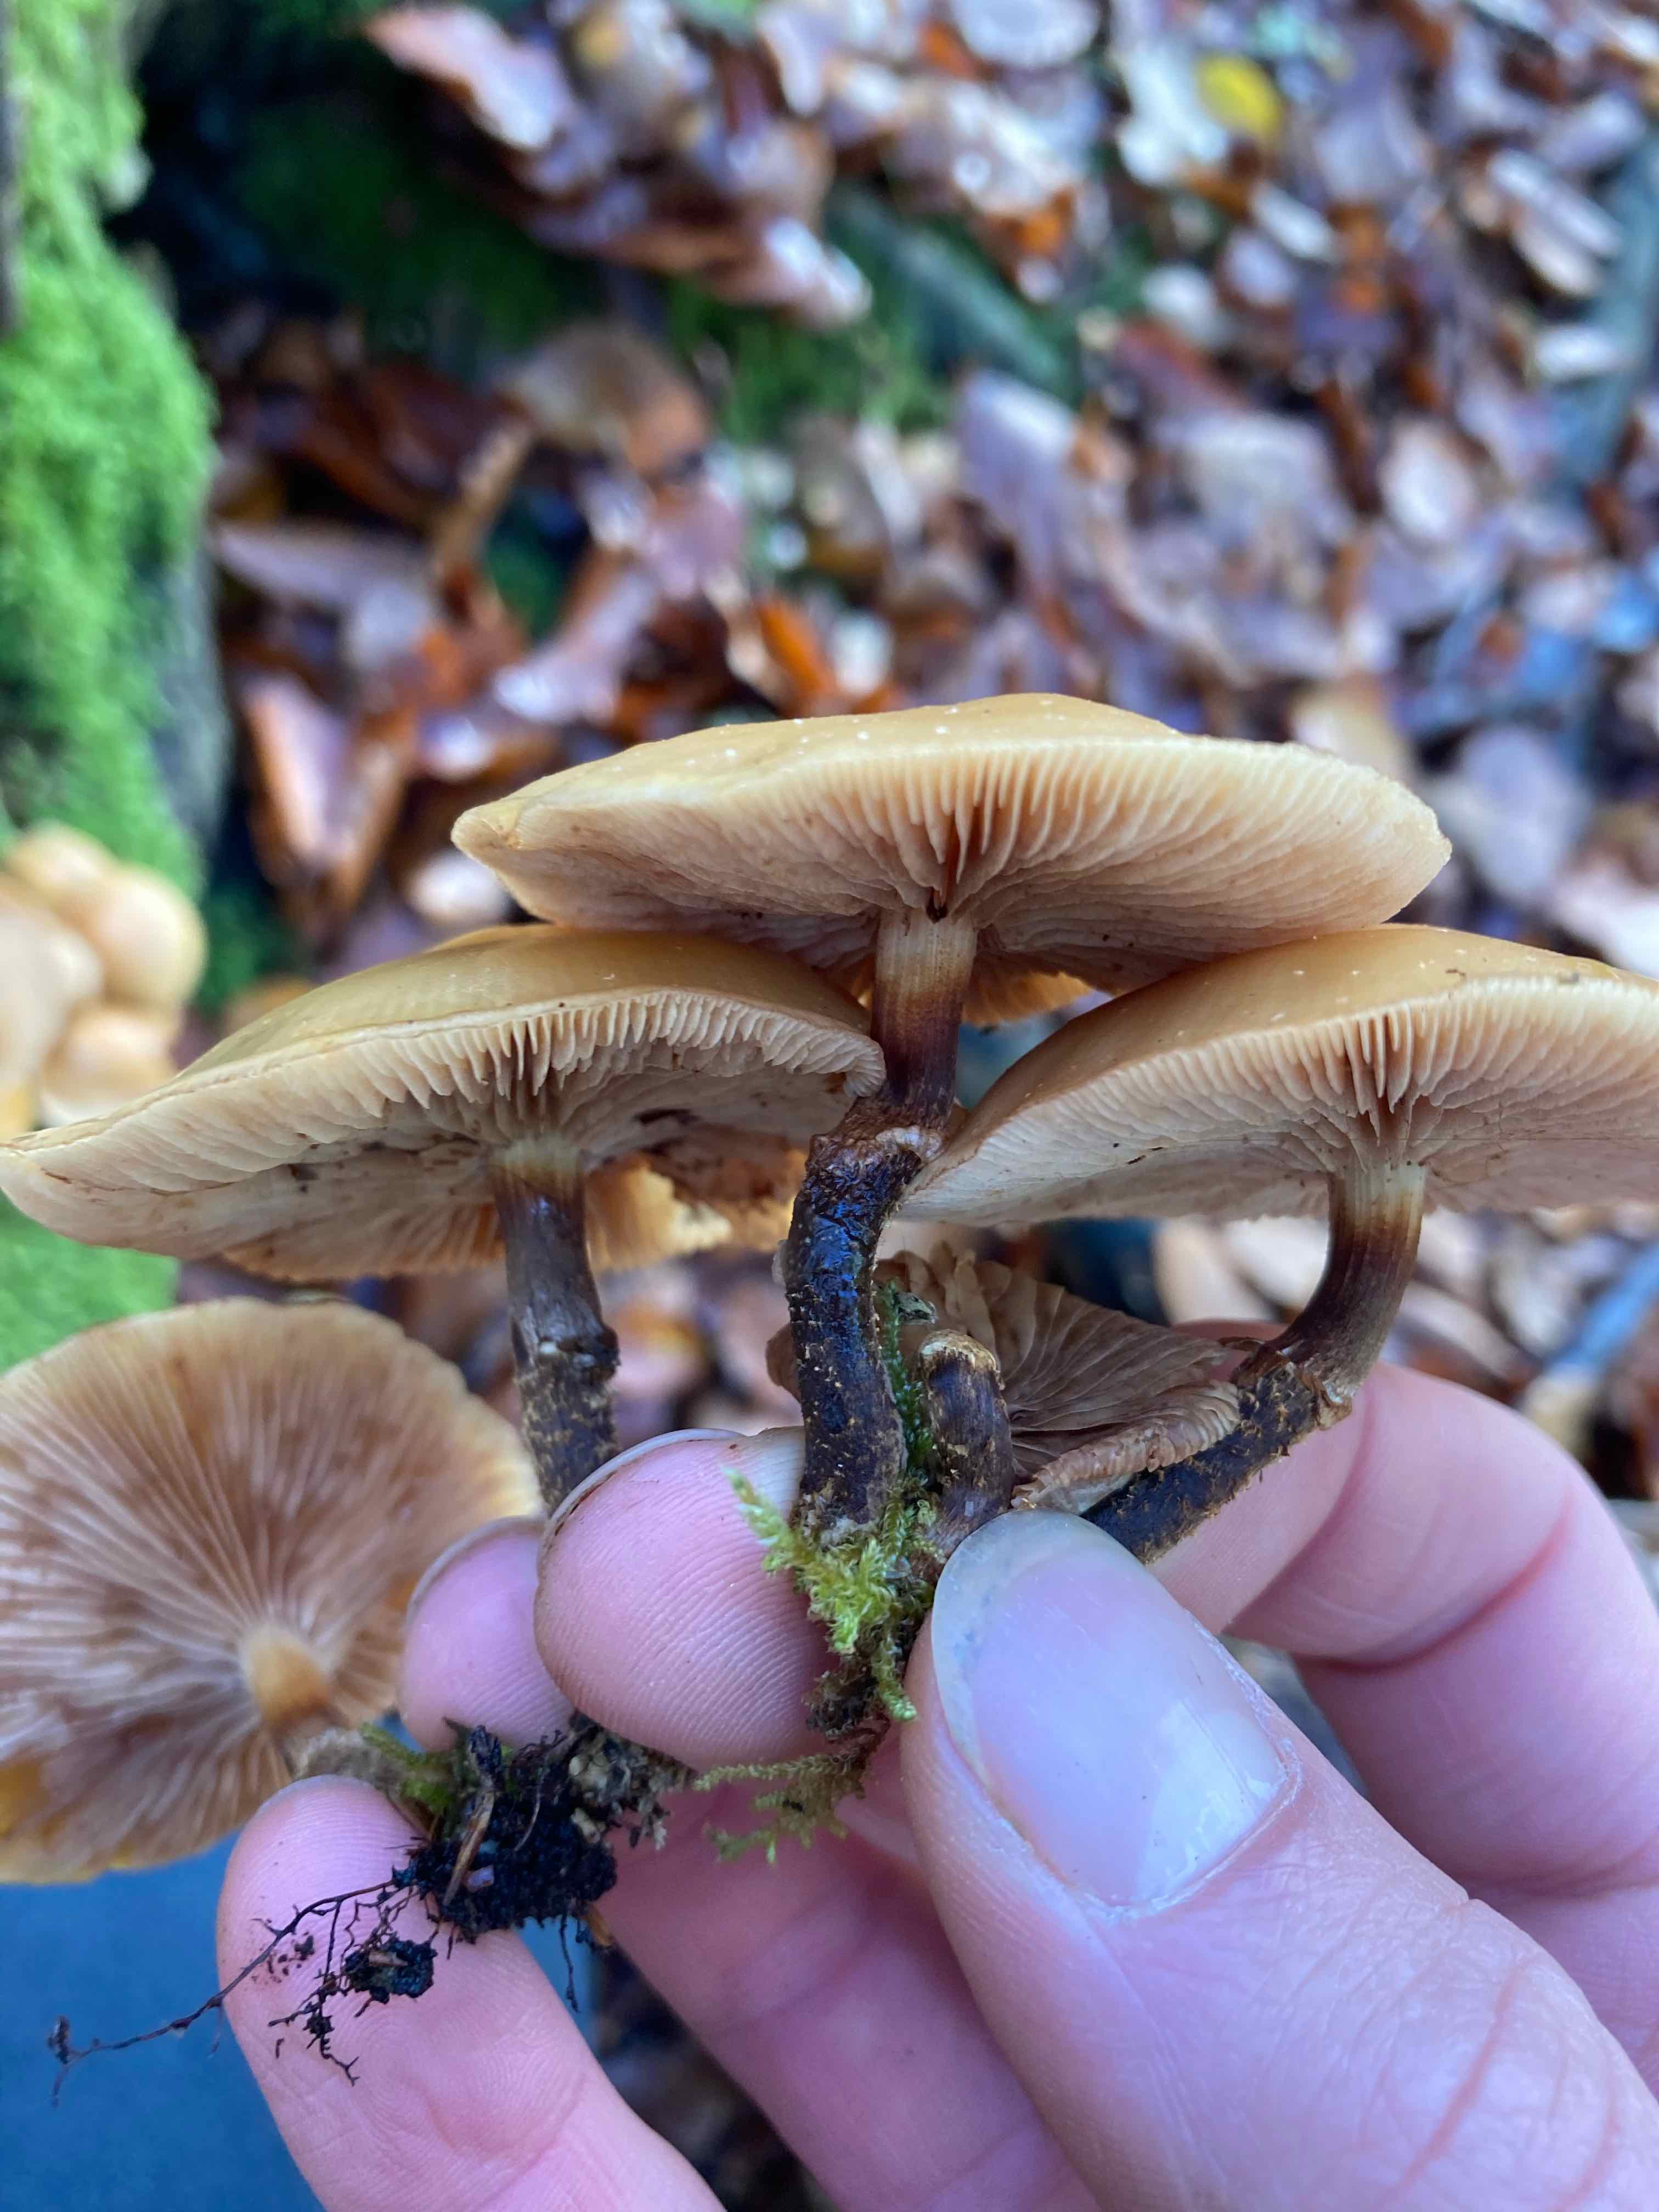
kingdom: Fungi
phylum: Basidiomycota
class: Agaricomycetes
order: Agaricales
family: Strophariaceae
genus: Kuehneromyces
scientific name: Kuehneromyces mutabilis
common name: foranderlig skælhat
